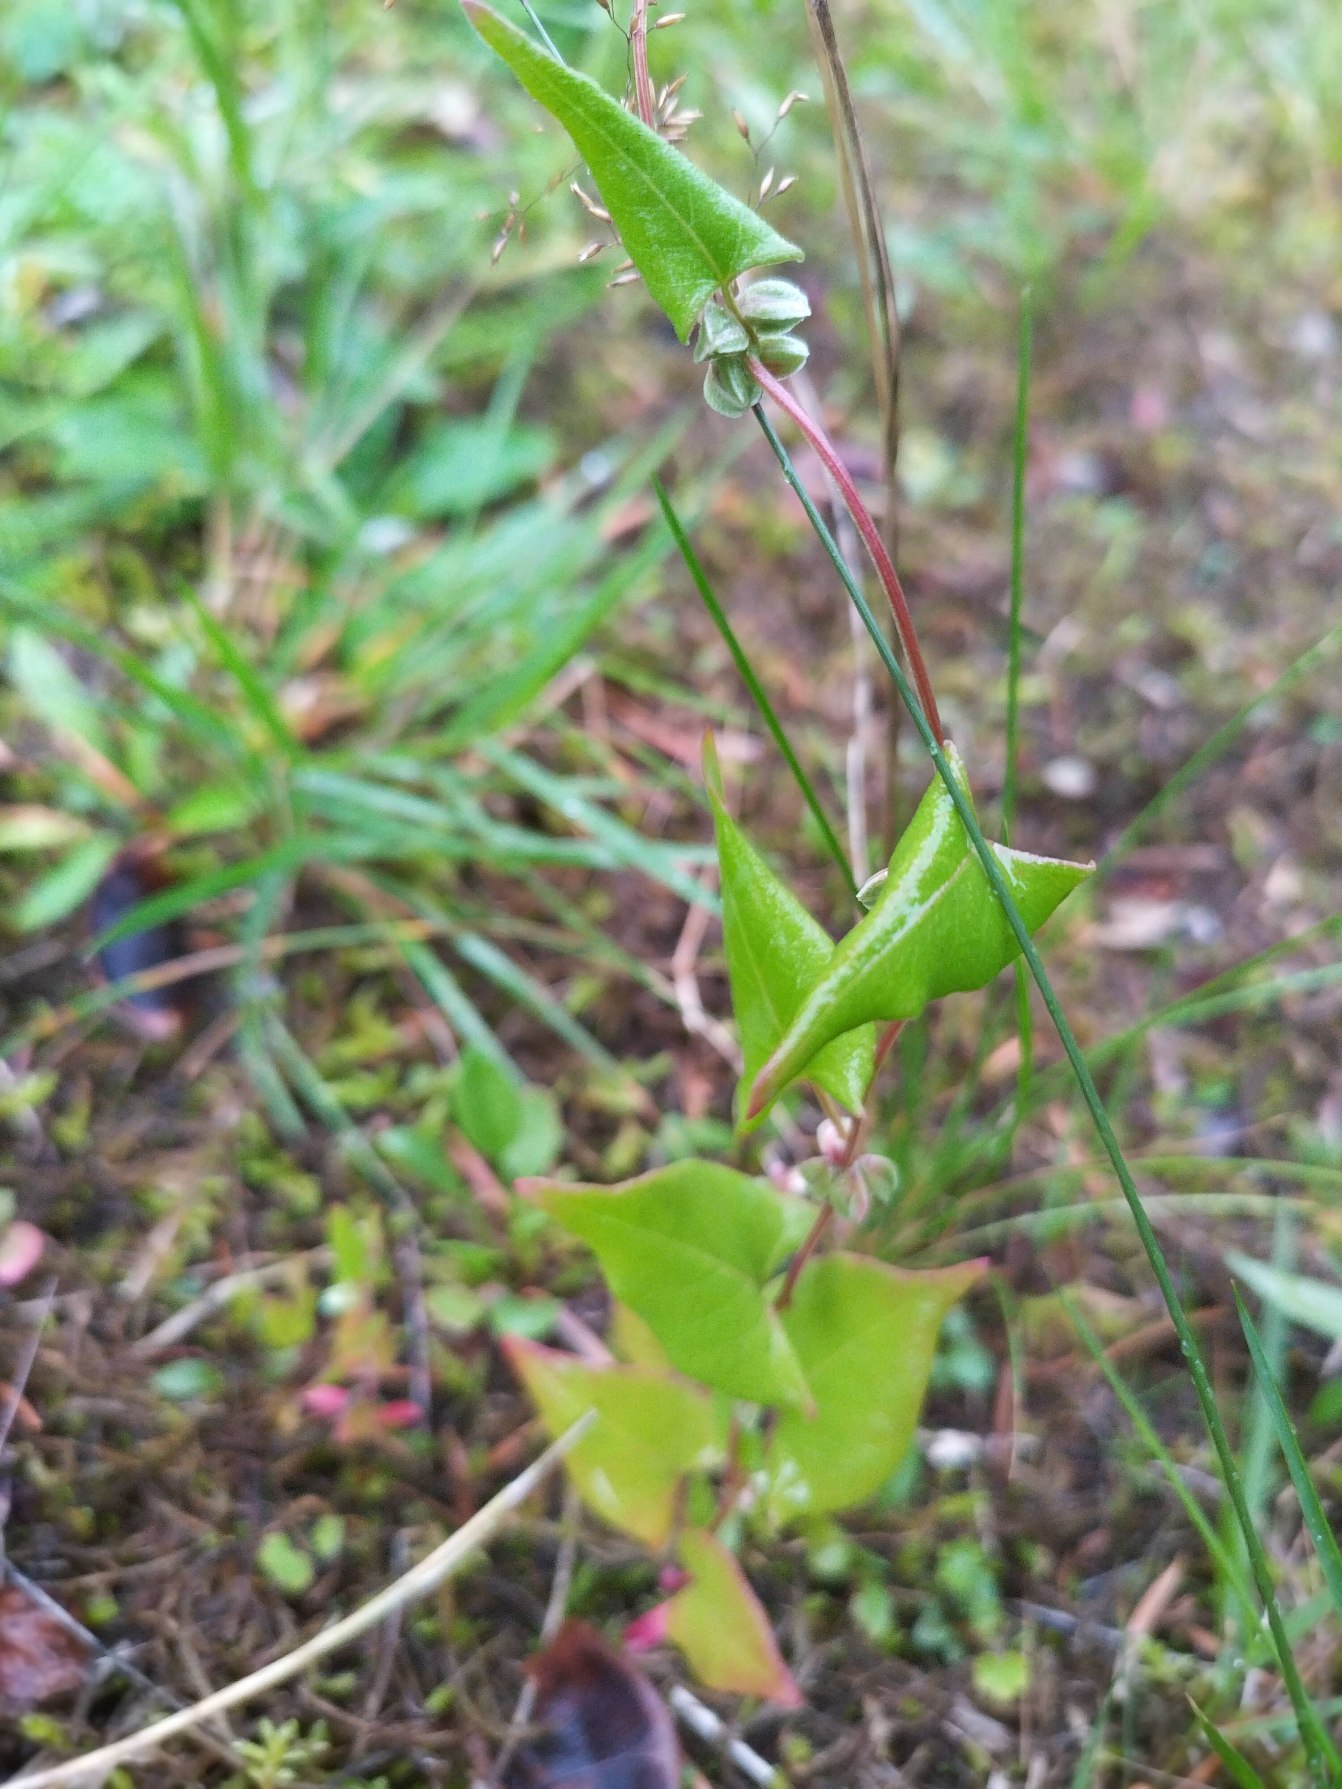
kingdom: Plantae
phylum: Tracheophyta
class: Magnoliopsida
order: Caryophyllales
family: Polygonaceae
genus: Fallopia
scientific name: Fallopia convolvulus
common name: Snerle-pileurt
